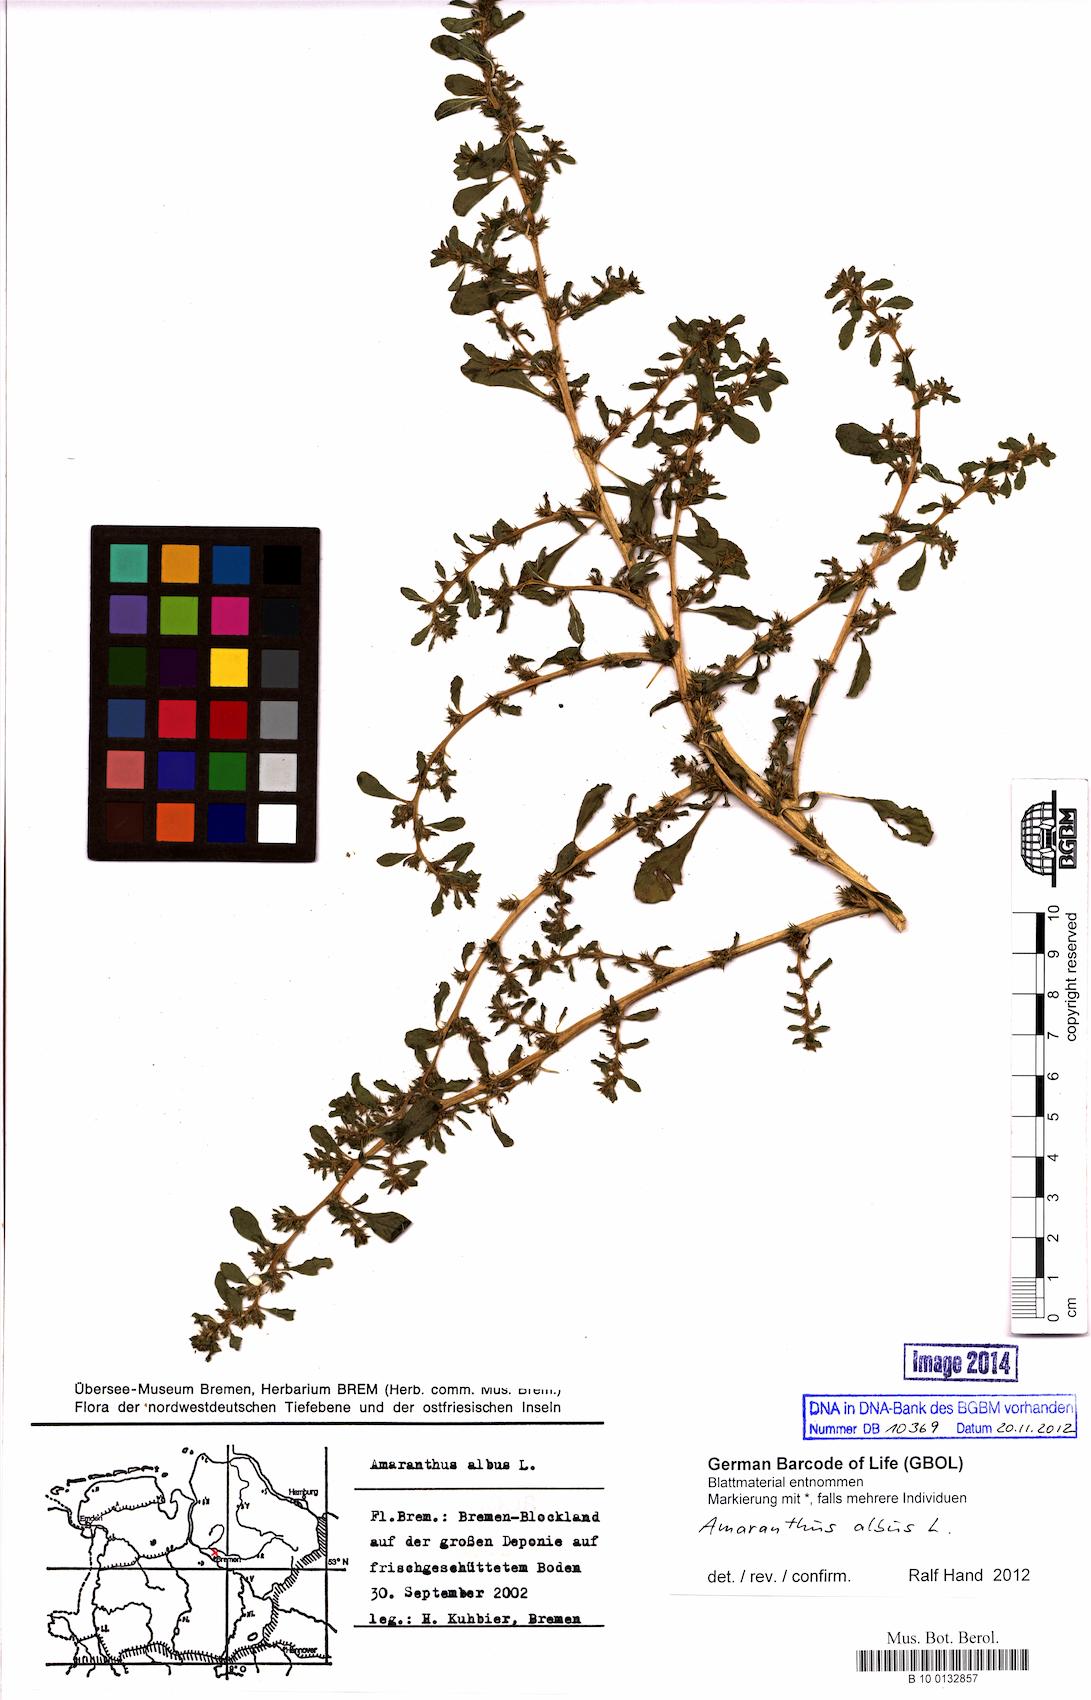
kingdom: Plantae
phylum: Tracheophyta
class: Magnoliopsida
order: Caryophyllales
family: Amaranthaceae
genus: Amaranthus
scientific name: Amaranthus albus
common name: White pigweed
